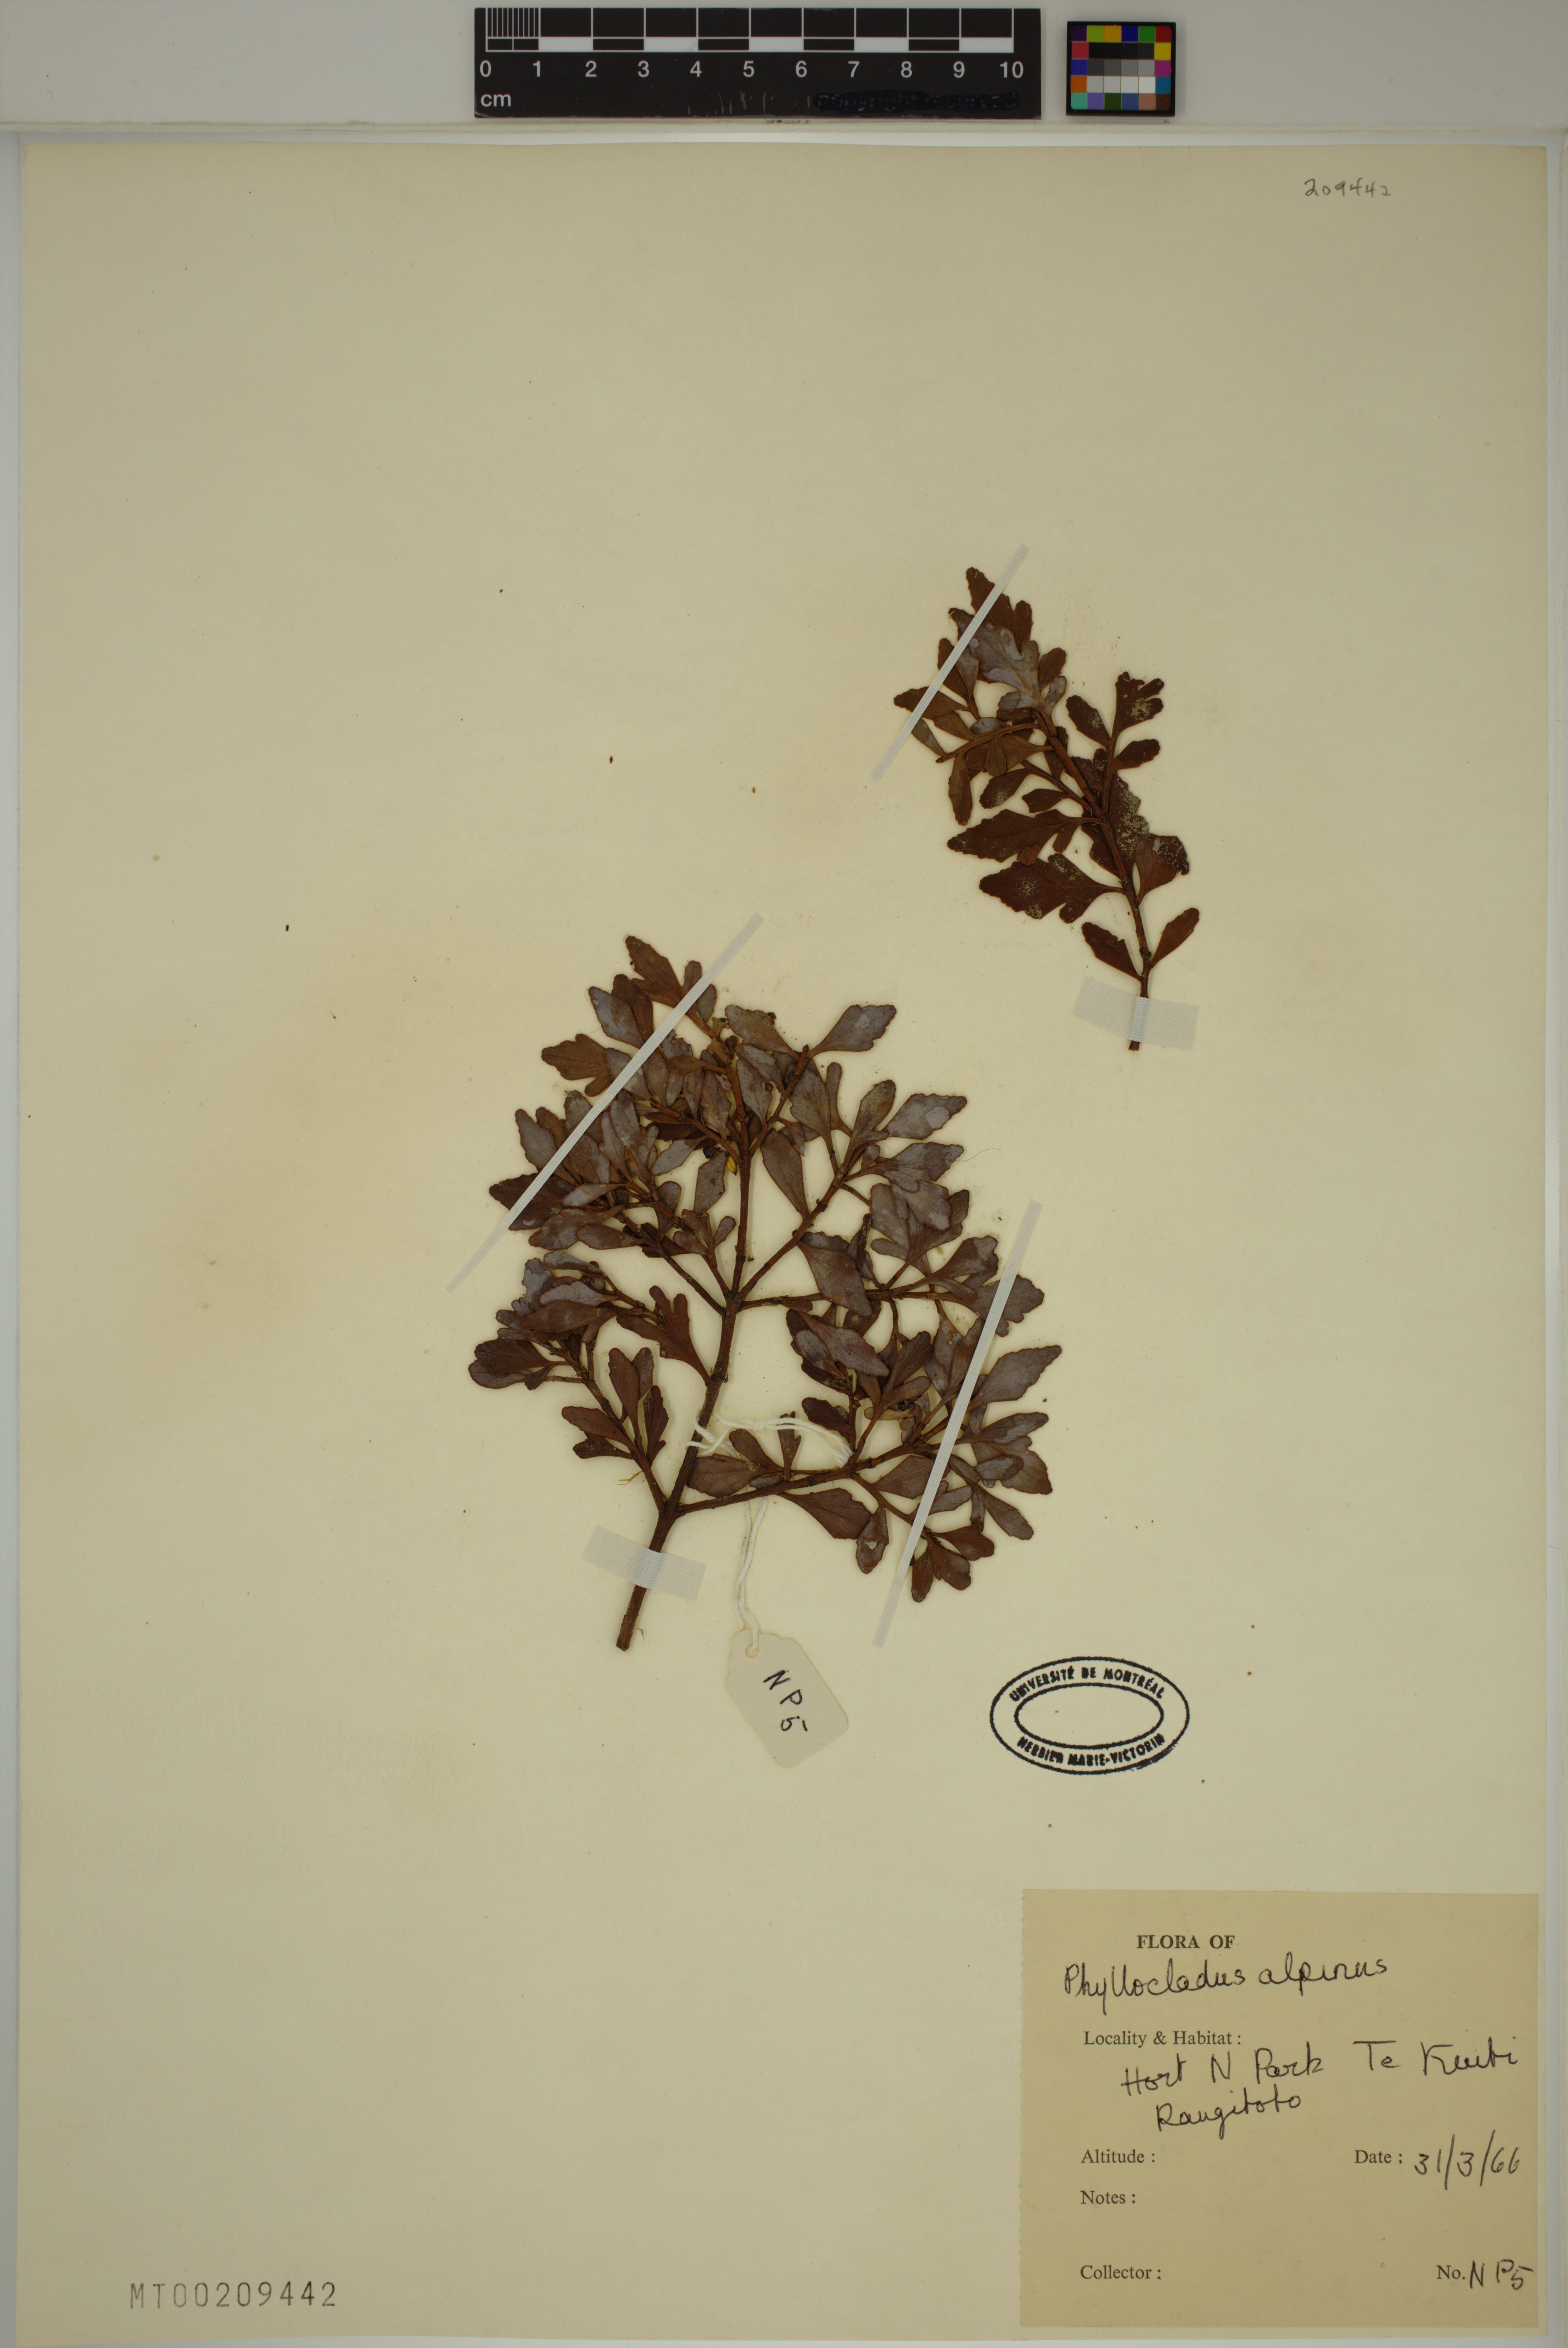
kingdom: Plantae
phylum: Tracheophyta
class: Pinopsida
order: Pinales
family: Phyllocladaceae
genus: Phyllocladus
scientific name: Phyllocladus trichomanoides
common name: Celery pine
